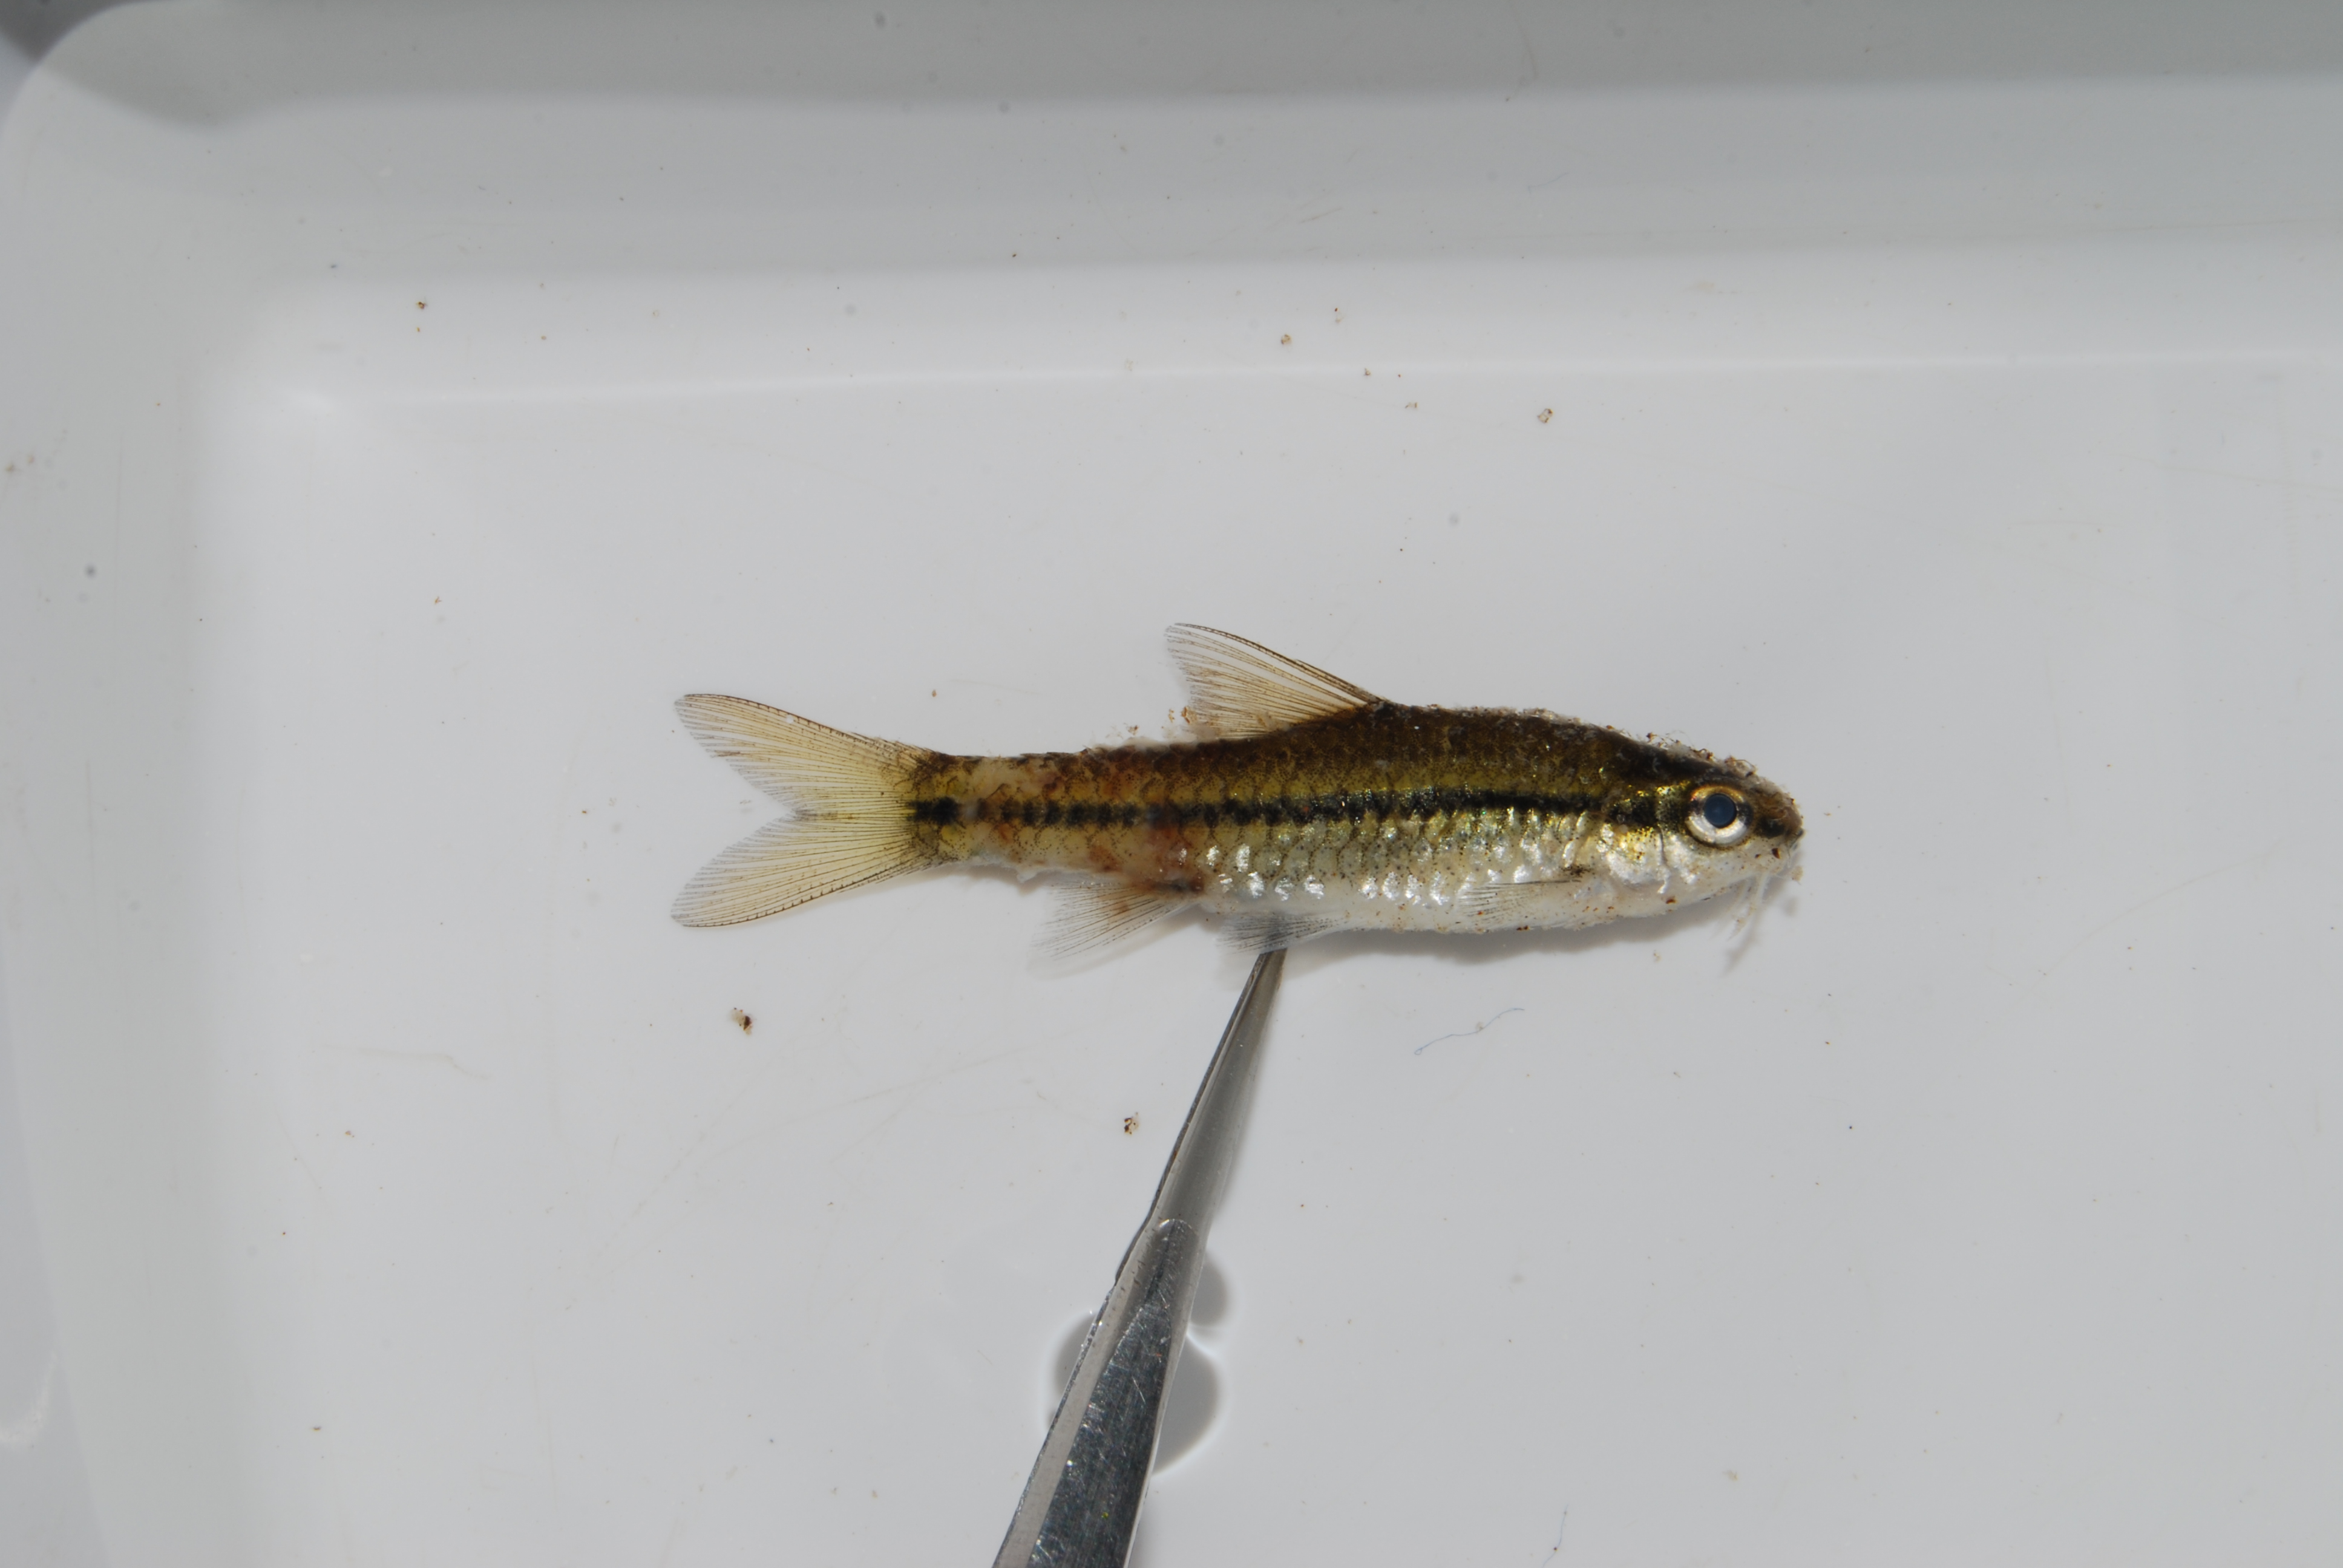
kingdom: Animalia
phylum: Chordata
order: Cypriniformes
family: Cyprinidae
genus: Enteromius
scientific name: Enteromius thamalakanensis
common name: Thamalakane barb
